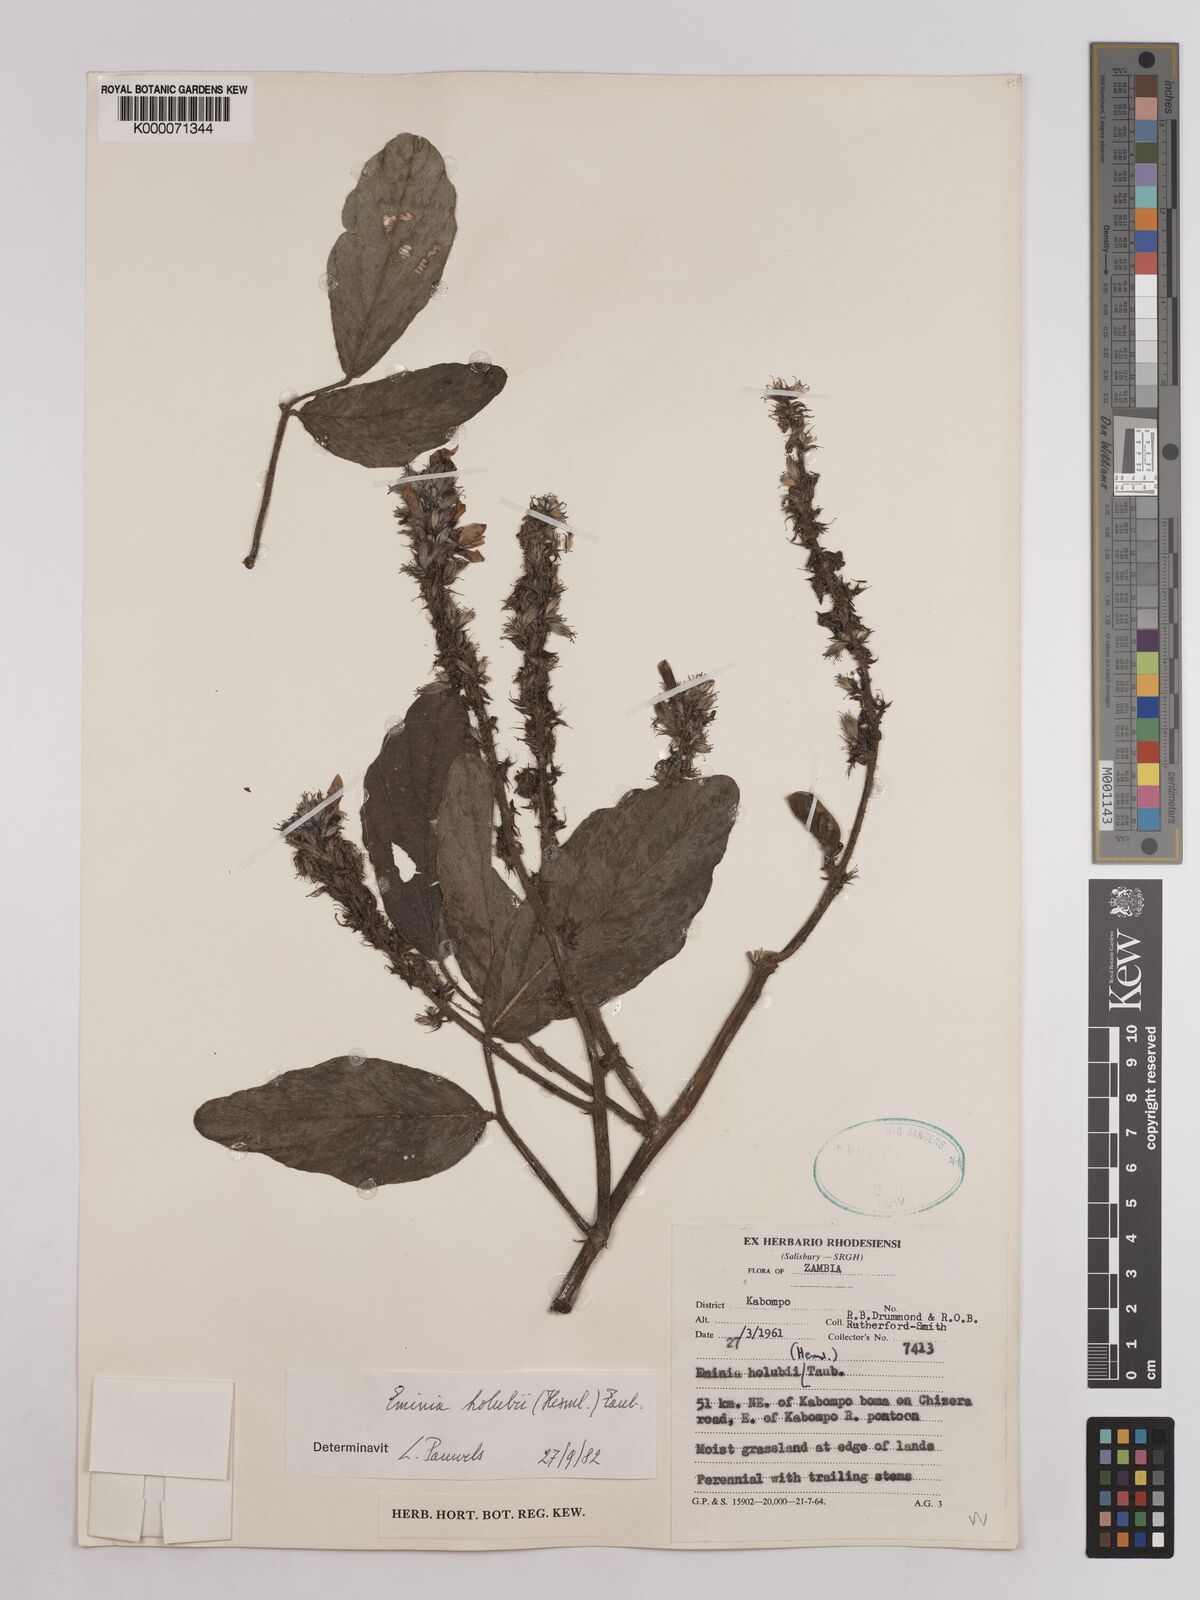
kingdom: Plantae
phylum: Tracheophyta
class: Magnoliopsida
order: Fabales
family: Fabaceae
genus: Eminia
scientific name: Eminia holubii
